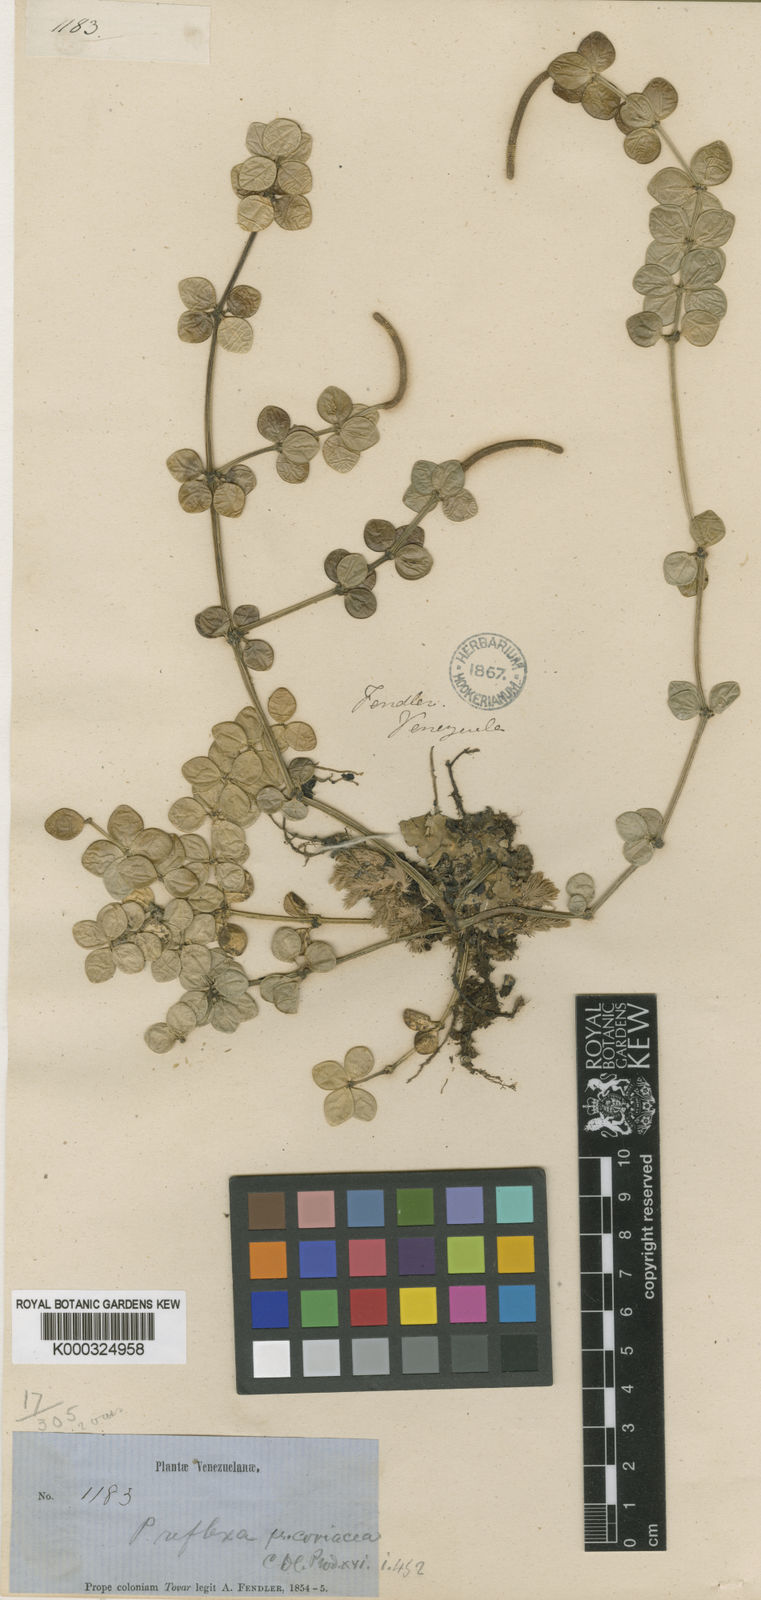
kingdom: Plantae
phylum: Tracheophyta
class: Magnoliopsida
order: Piperales
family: Piperaceae
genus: Peperomia
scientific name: Peperomia tetraphylla
